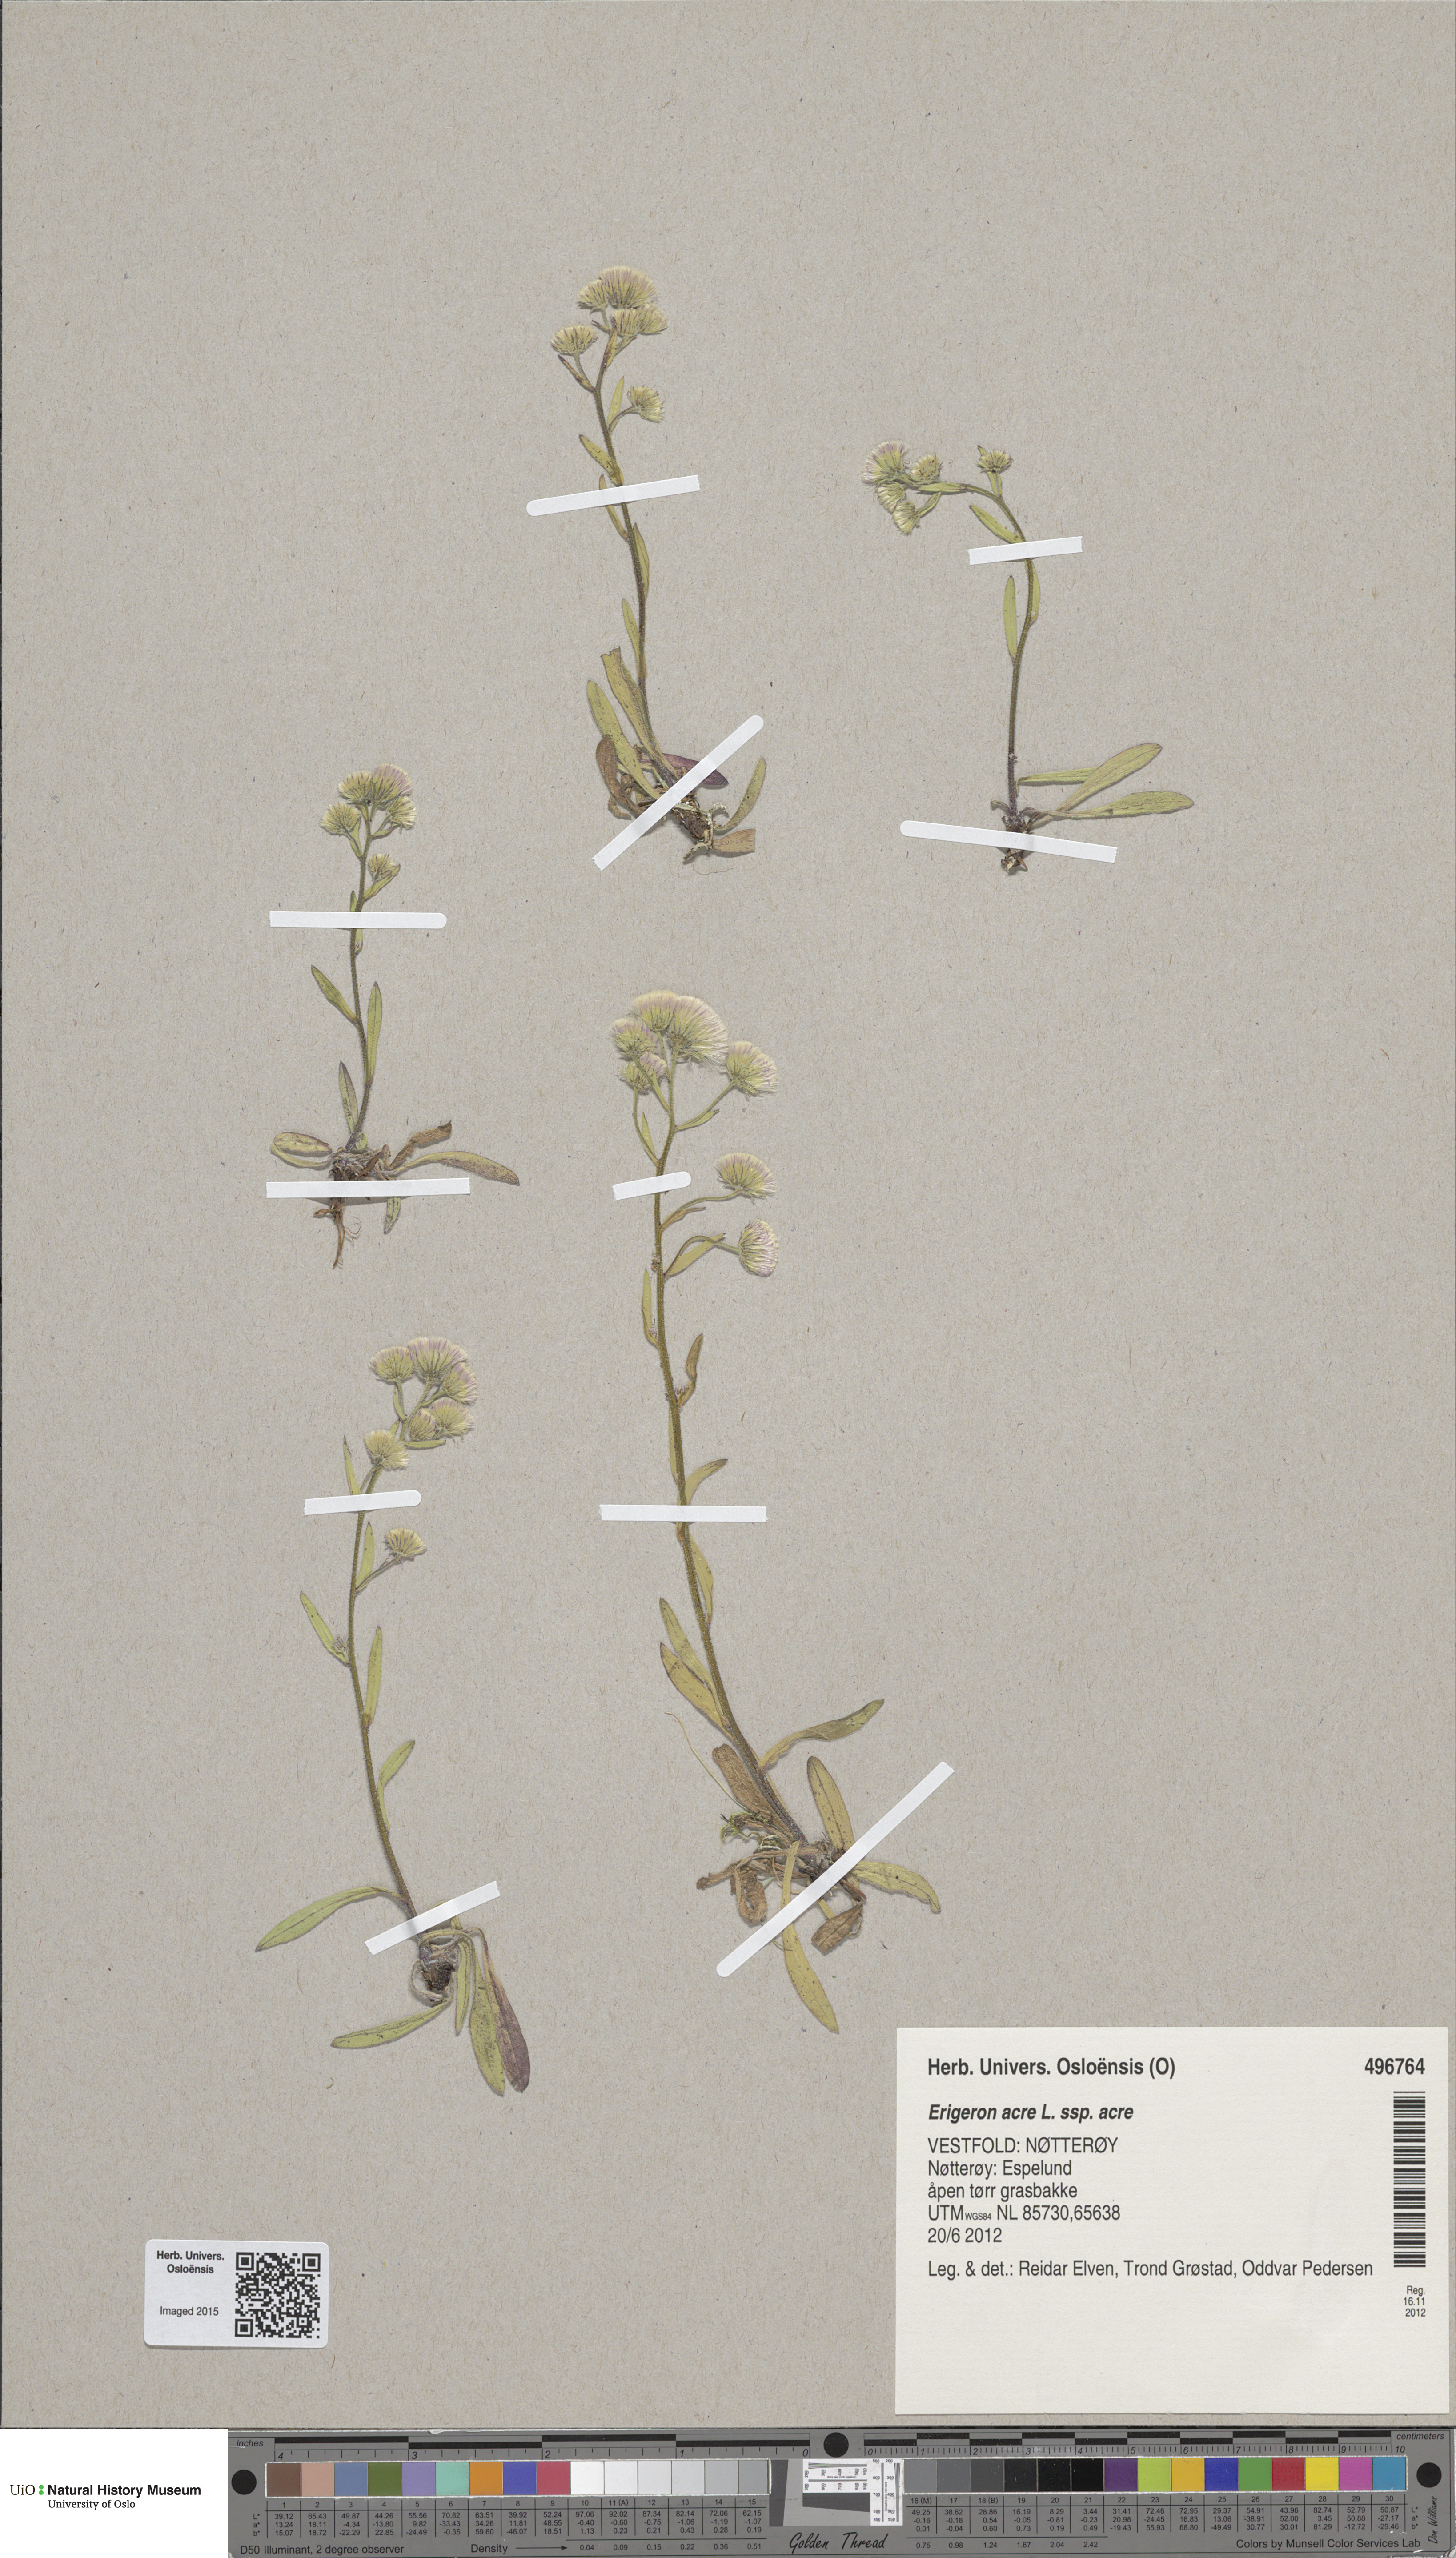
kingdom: Plantae
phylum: Tracheophyta
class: Magnoliopsida
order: Asterales
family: Asteraceae
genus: Erigeron
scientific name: Erigeron acris
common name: Blue fleabane
